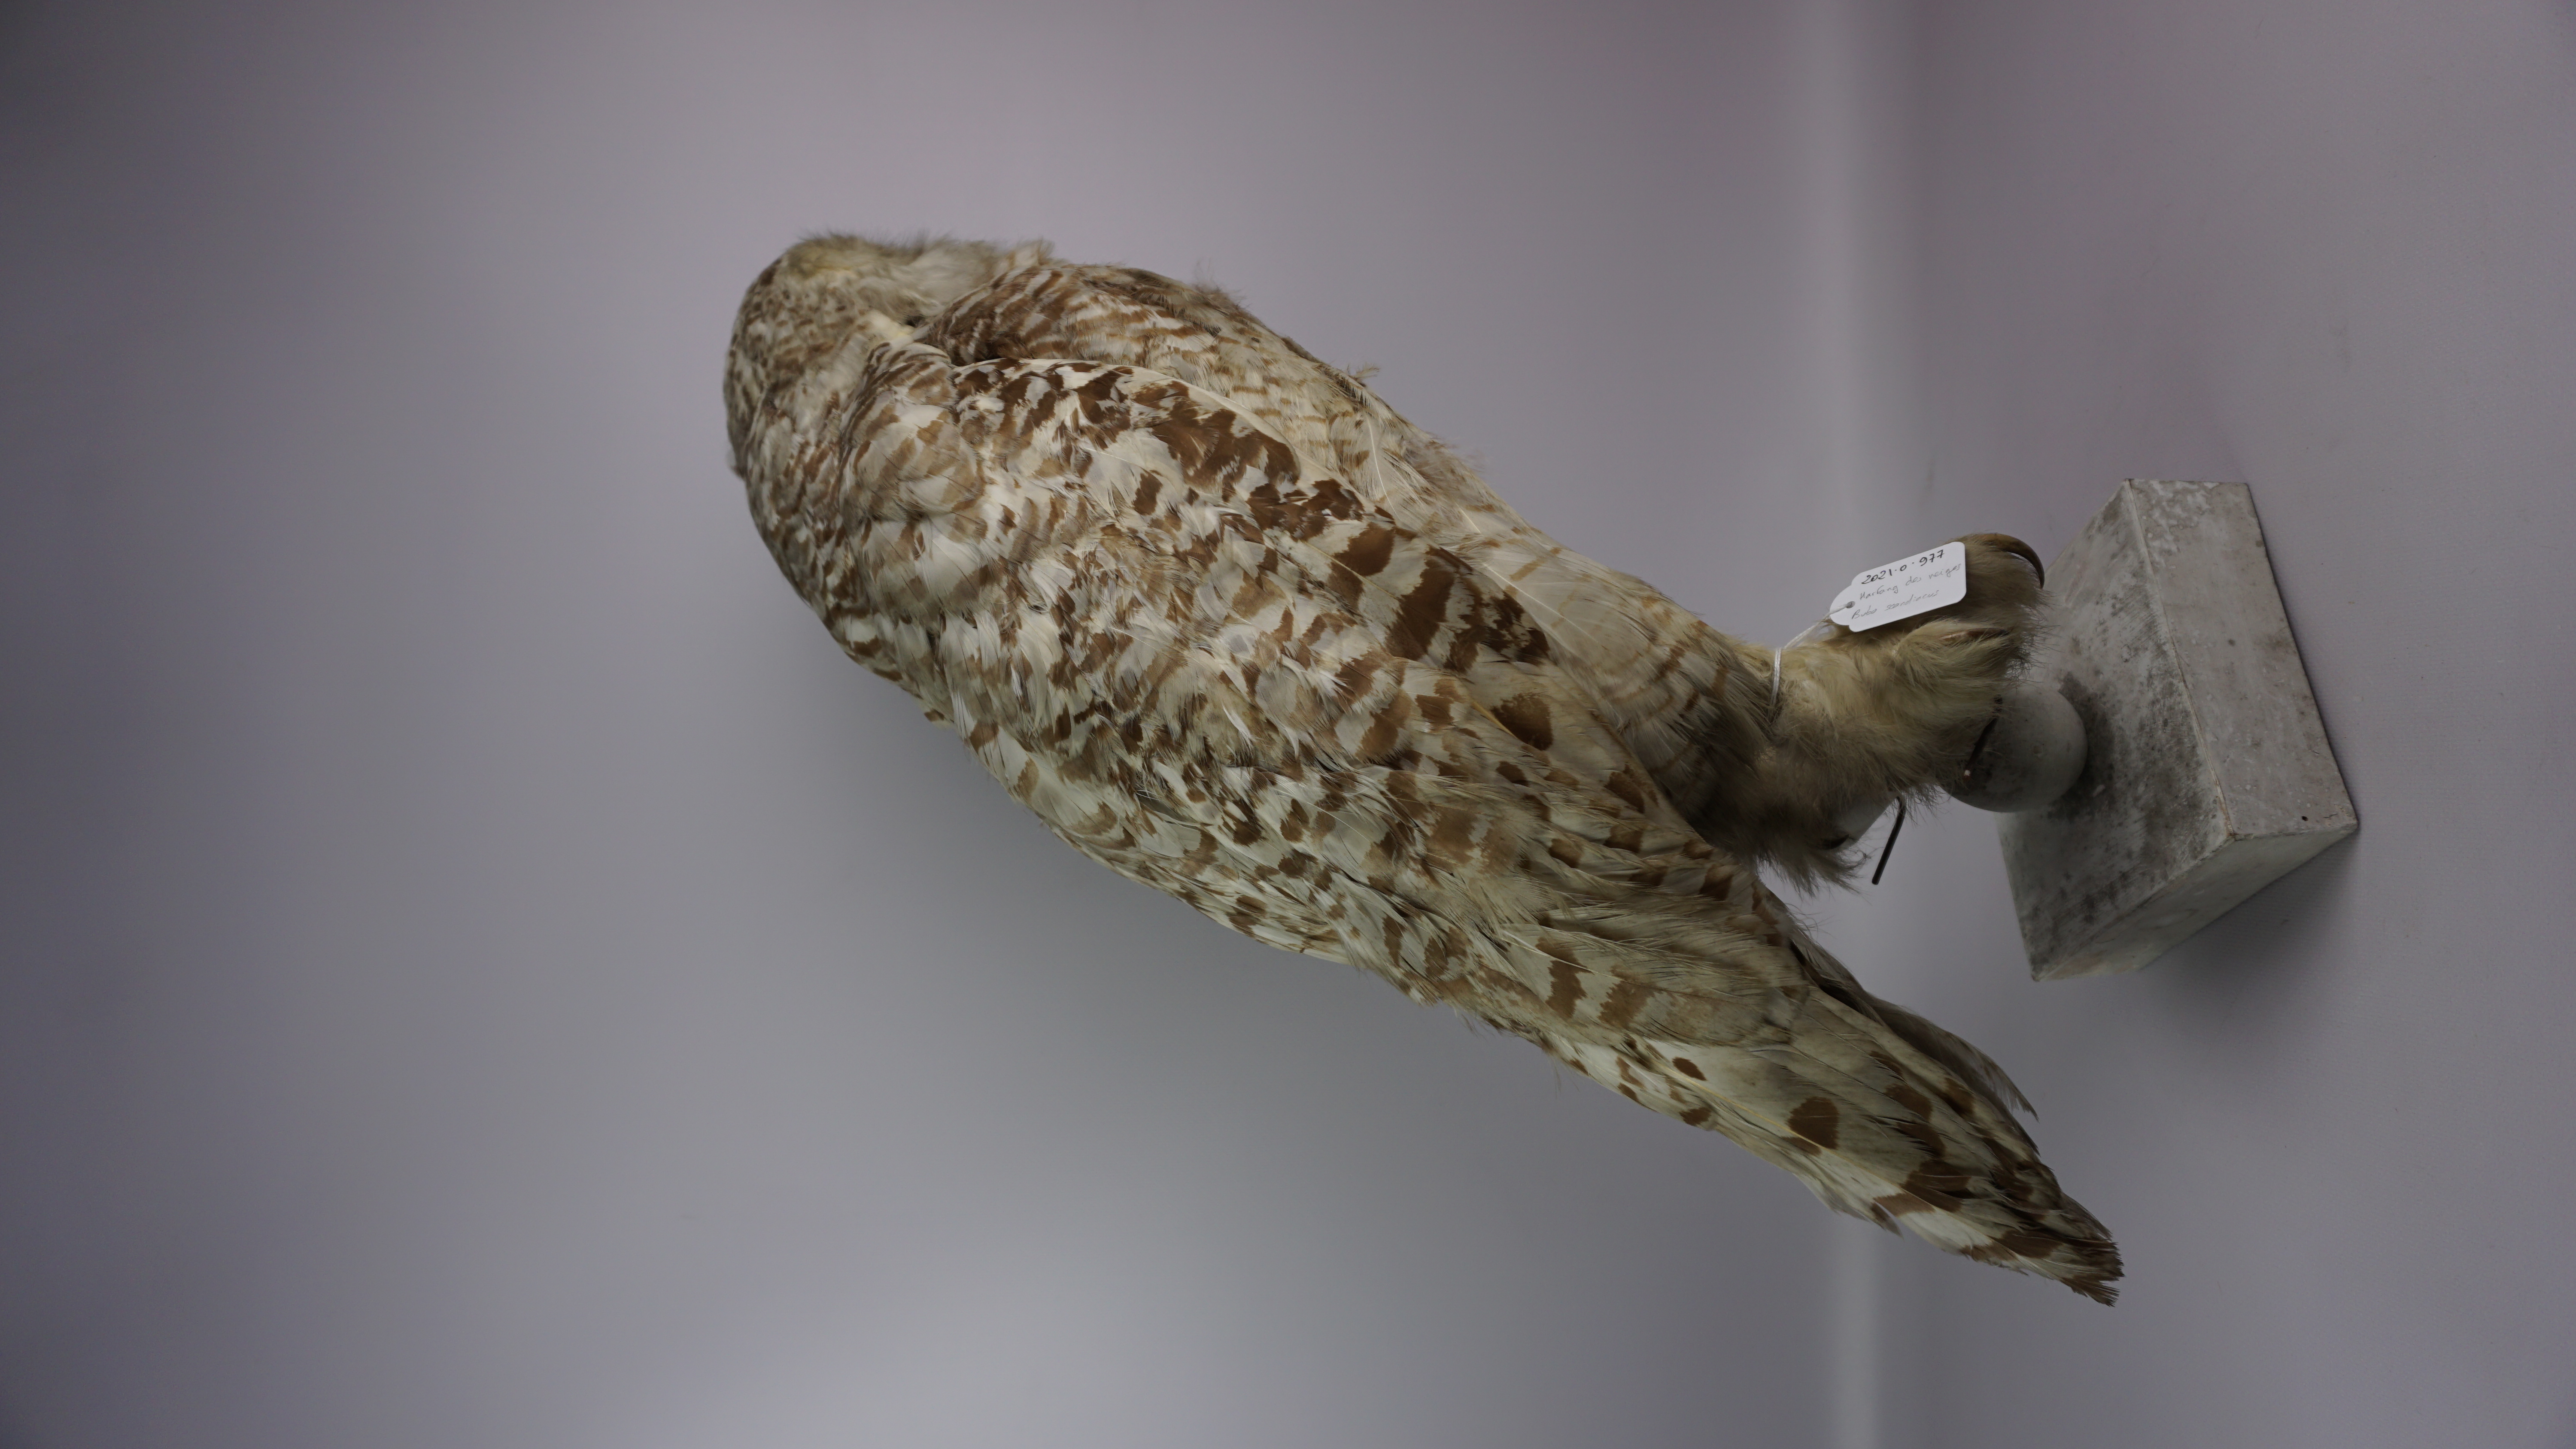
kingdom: Animalia
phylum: Chordata
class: Aves
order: Strigiformes
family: Strigidae
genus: Bubo
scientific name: Bubo scandiacus
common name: Snowy owl
